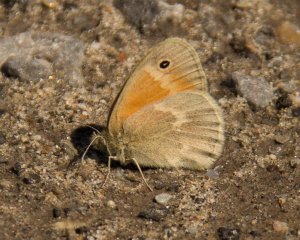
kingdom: Animalia
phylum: Arthropoda
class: Insecta
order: Lepidoptera
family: Nymphalidae
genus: Coenonympha
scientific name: Coenonympha tullia
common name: Large Heath
